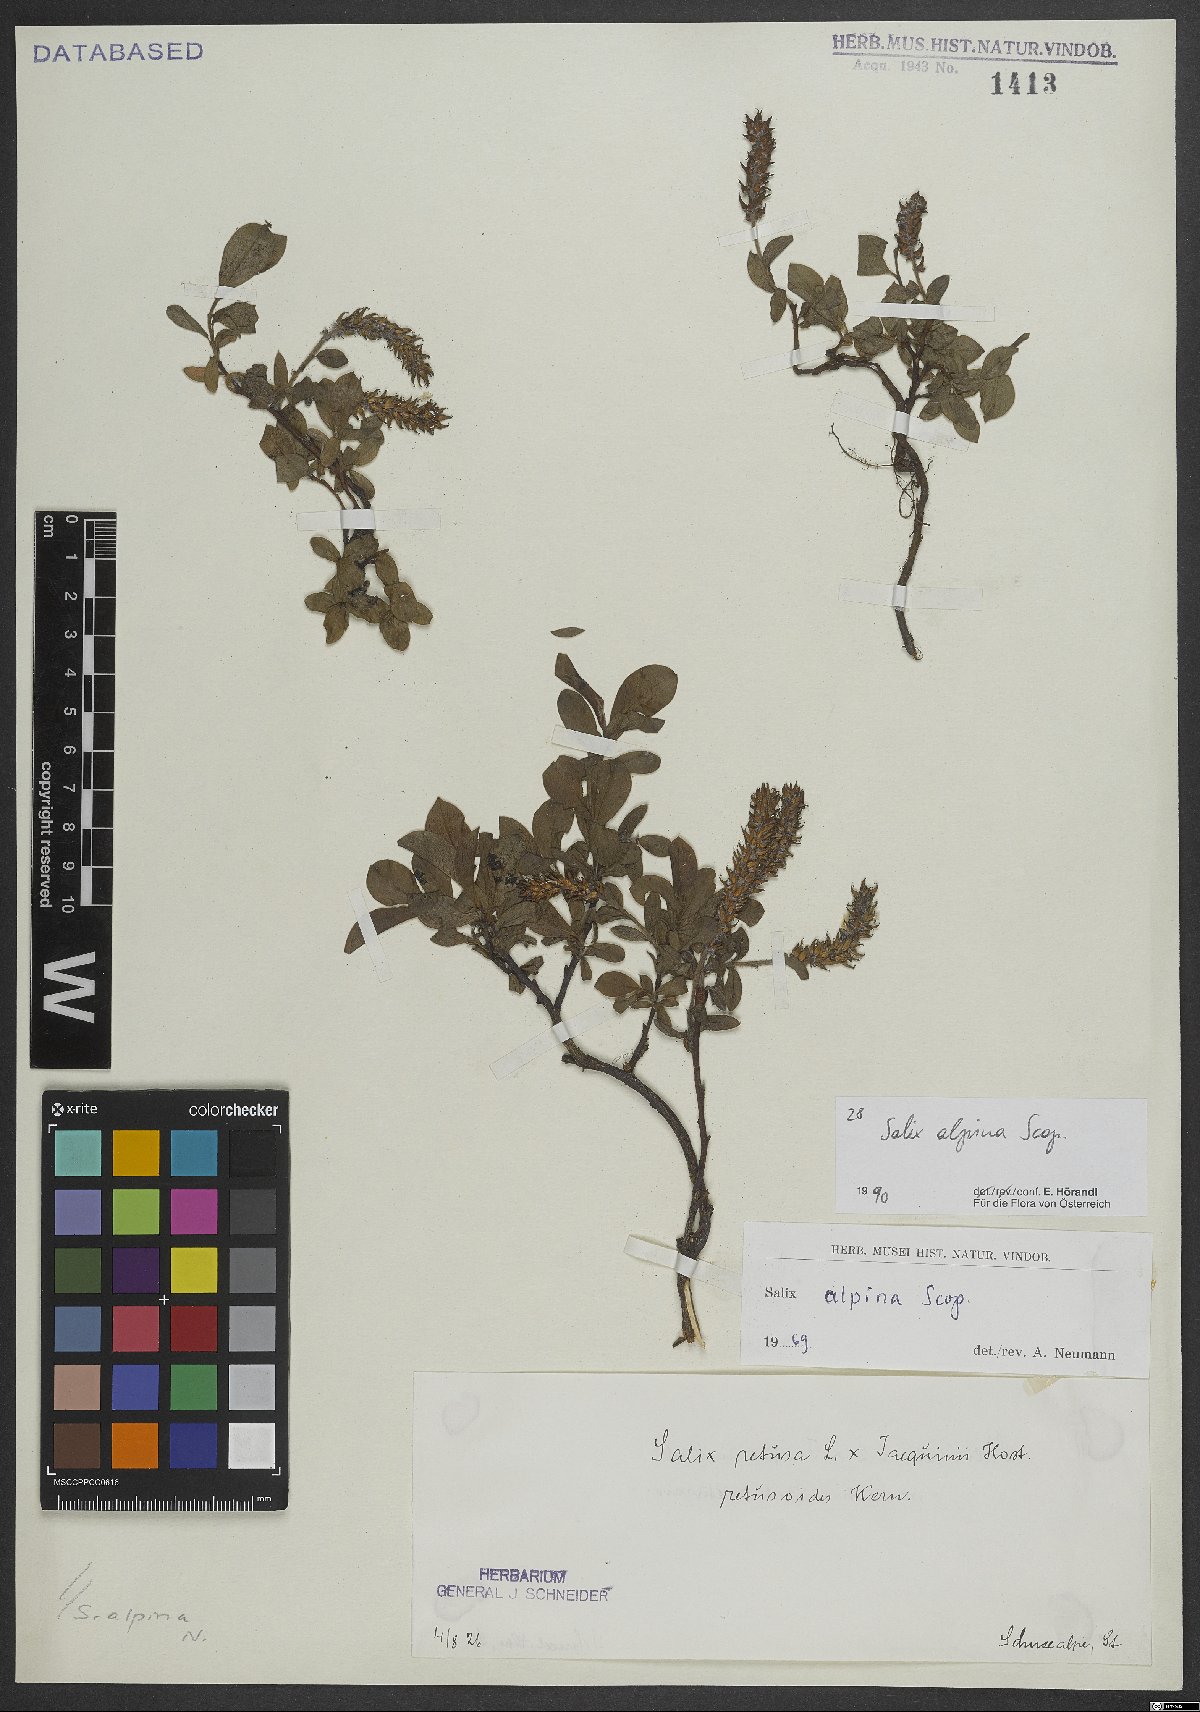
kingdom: Plantae
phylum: Tracheophyta
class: Magnoliopsida
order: Malpighiales
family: Salicaceae
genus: Salix
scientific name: Salix alpina
